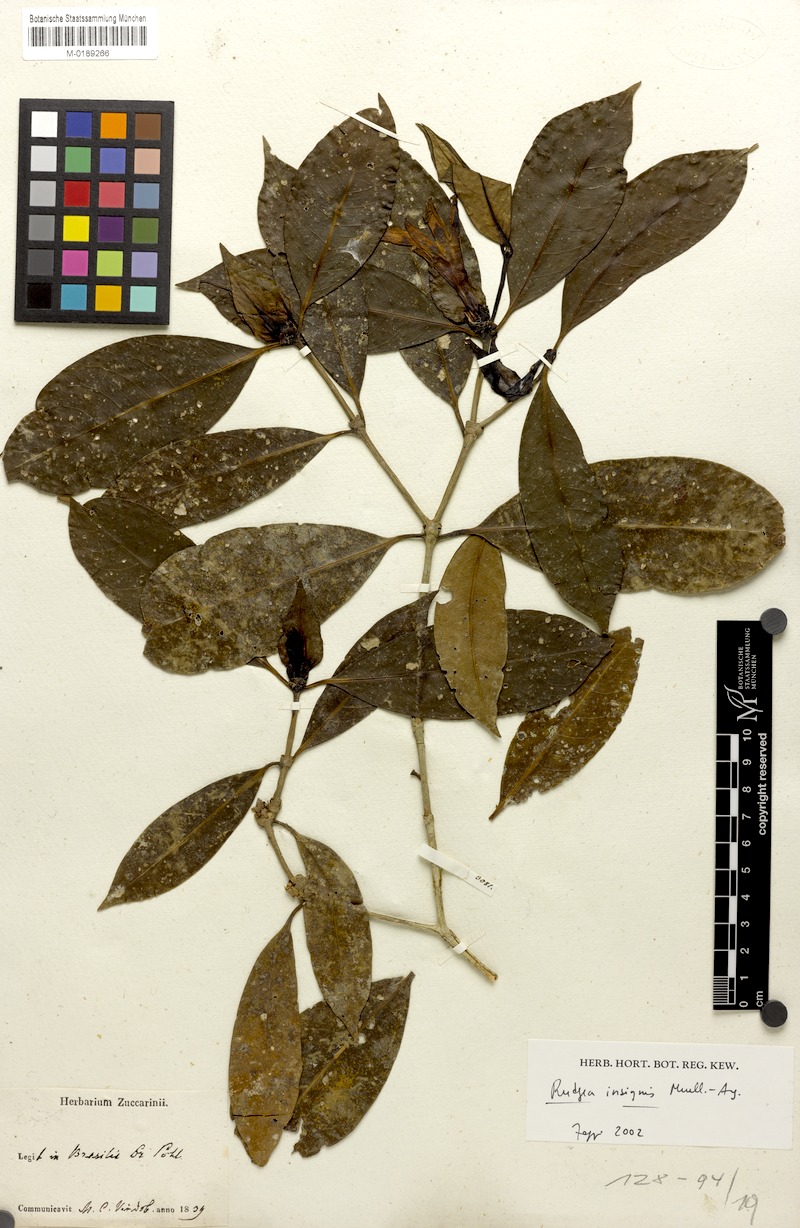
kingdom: Plantae
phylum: Tracheophyta
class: Magnoliopsida
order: Gentianales
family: Rubiaceae
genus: Rudgea
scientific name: Rudgea insignis
